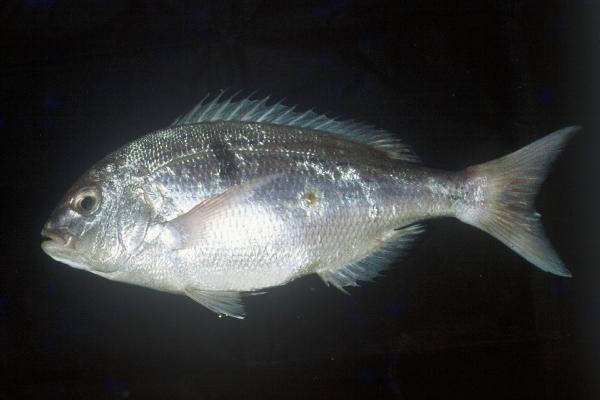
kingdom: Animalia
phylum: Chordata
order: Perciformes
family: Sparidae
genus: Polysteganus
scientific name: Polysteganus undulosus
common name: Seventy-four seabream
